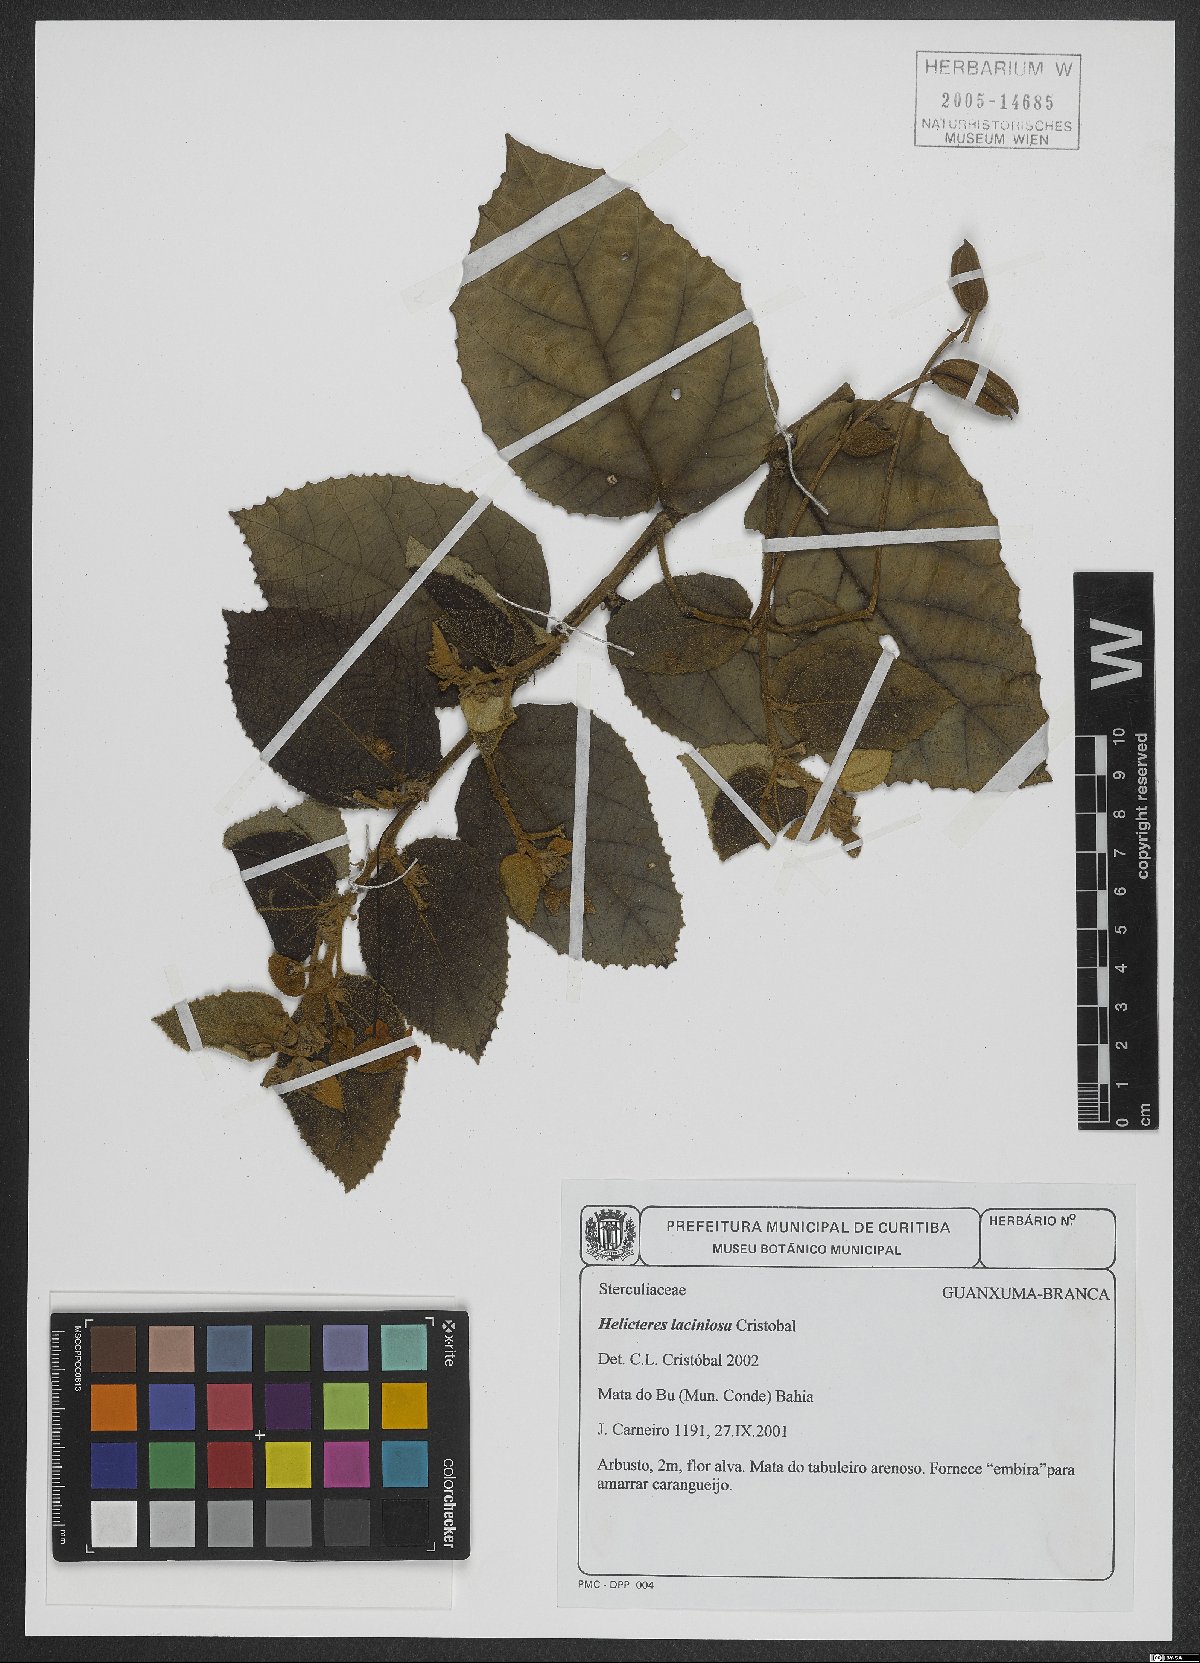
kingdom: Plantae
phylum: Tracheophyta
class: Magnoliopsida
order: Malvales
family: Malvaceae
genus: Helicteres
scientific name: Helicteres laciniosa
